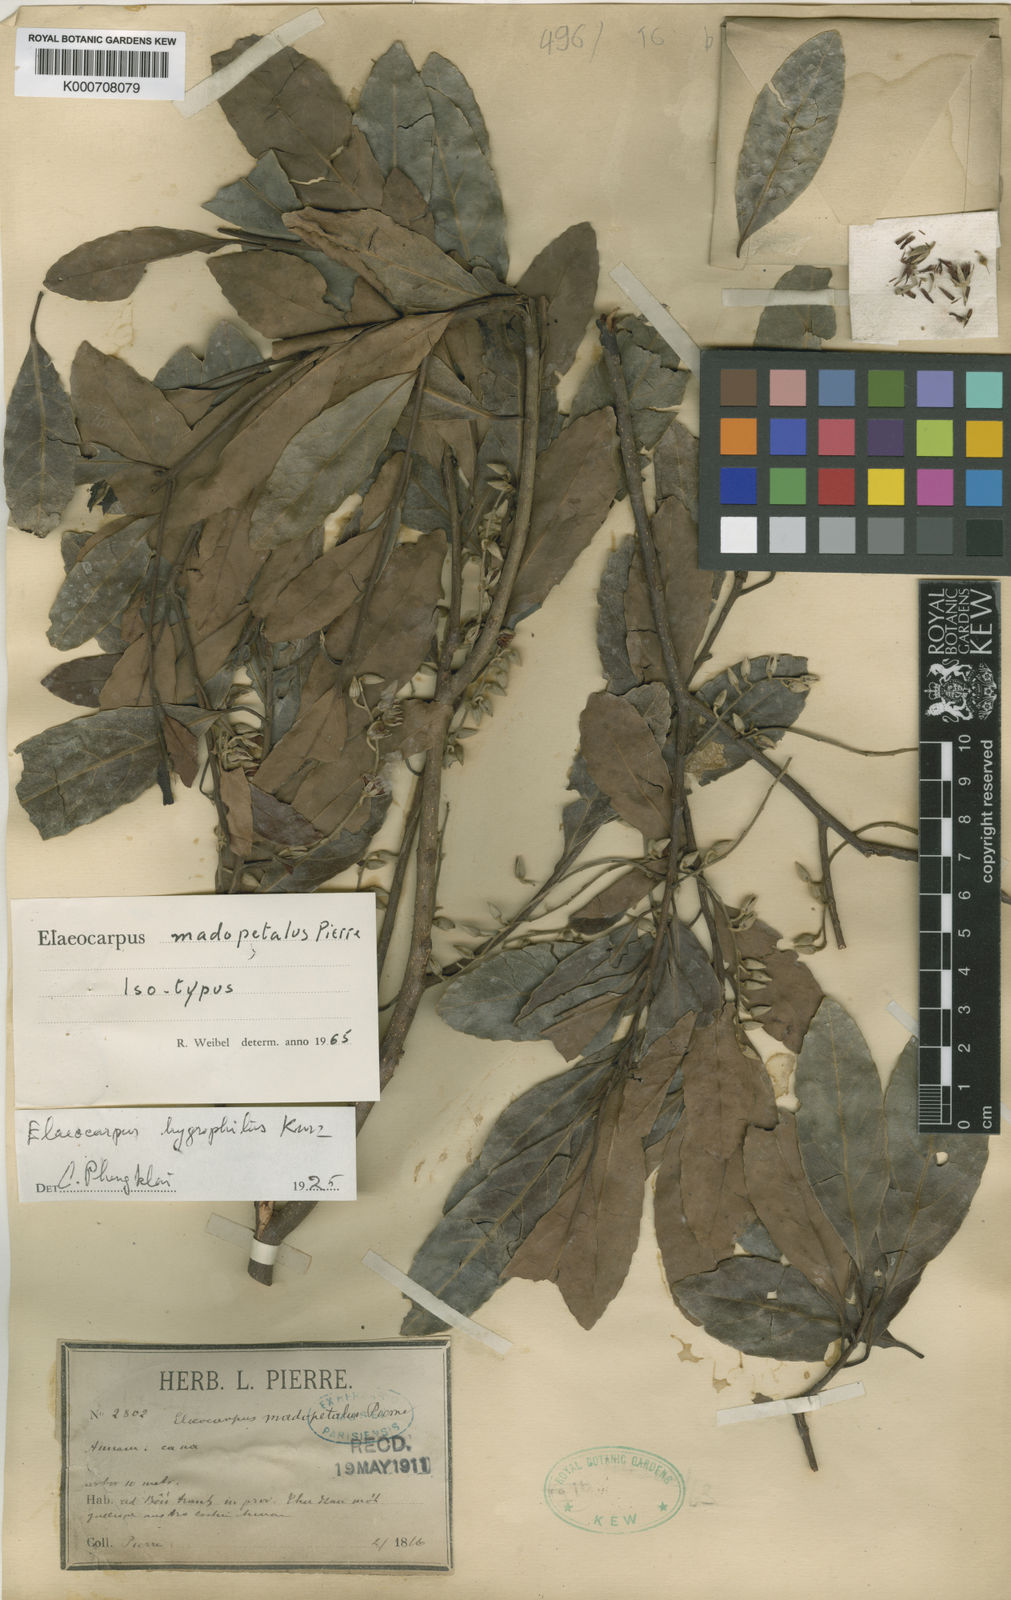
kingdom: Plantae
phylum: Tracheophyta
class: Magnoliopsida
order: Oxalidales
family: Elaeocarpaceae
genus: Elaeocarpus
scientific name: Elaeocarpus hygrophilus
